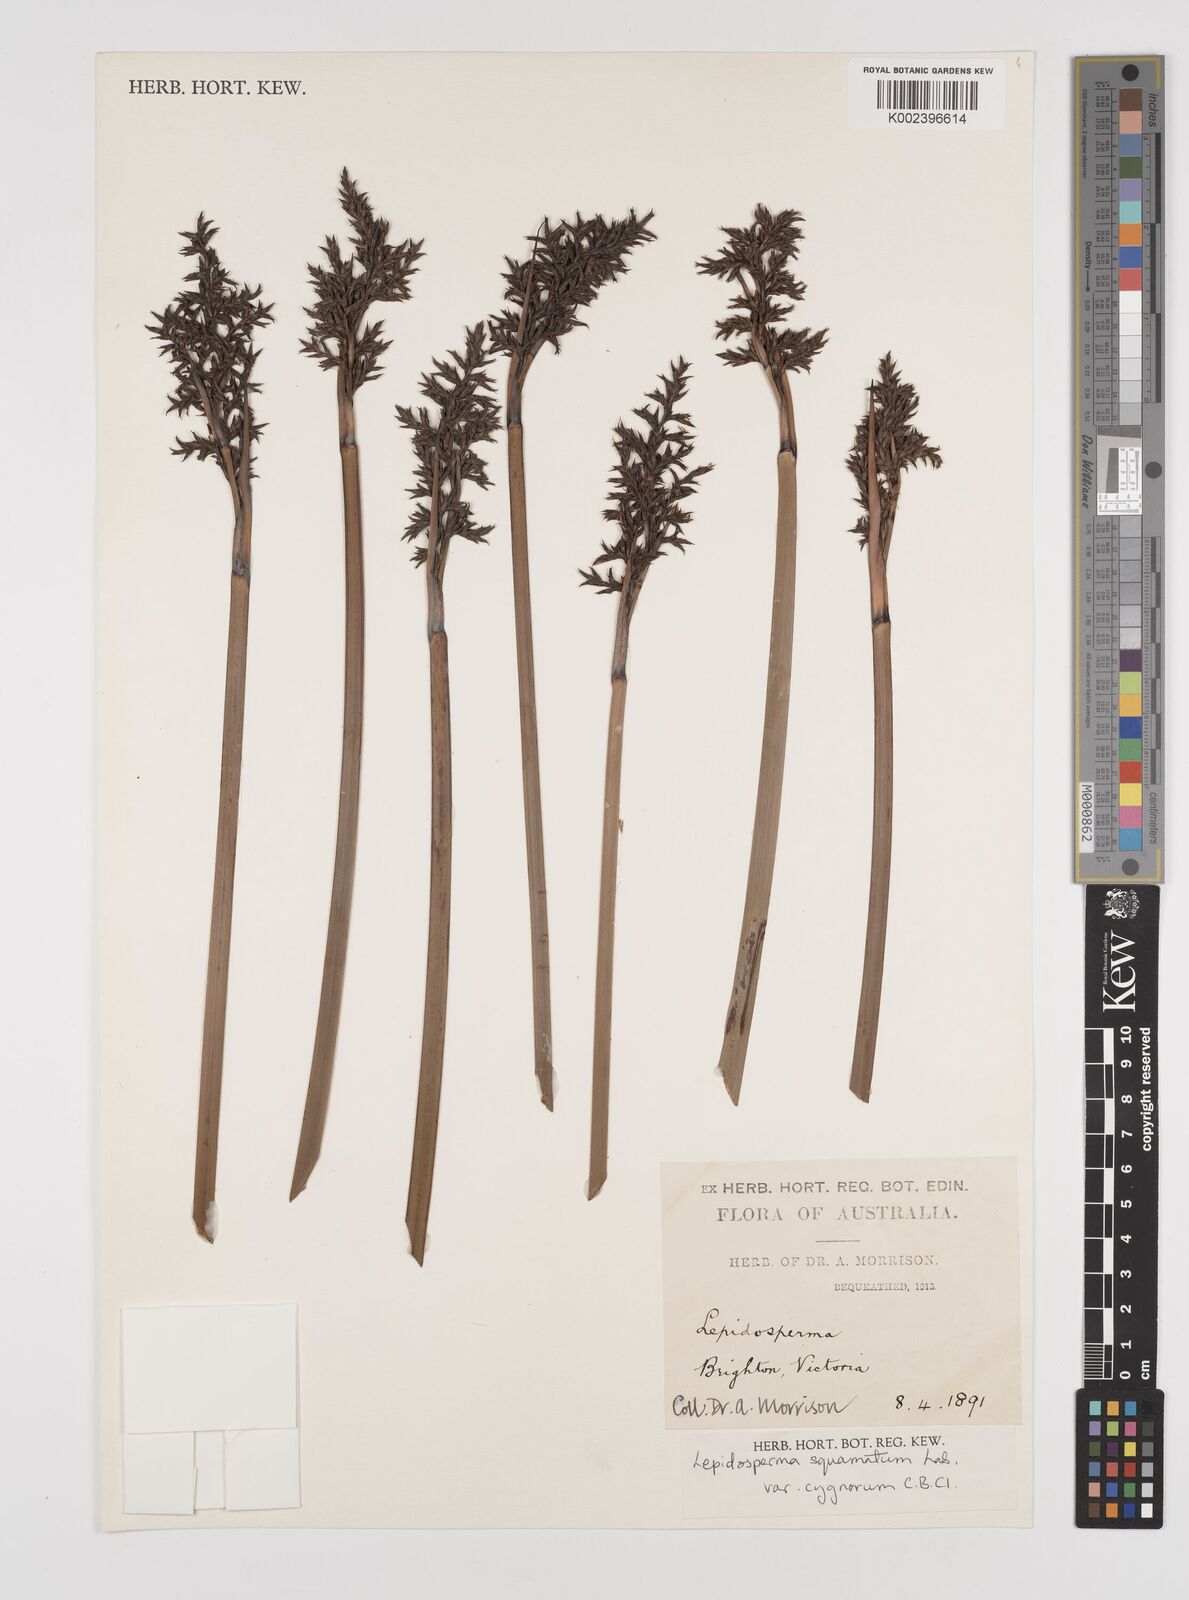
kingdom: Plantae
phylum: Tracheophyta
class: Liliopsida
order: Poales
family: Cyperaceae
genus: Lepidosperma
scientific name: Lepidosperma angustatum
